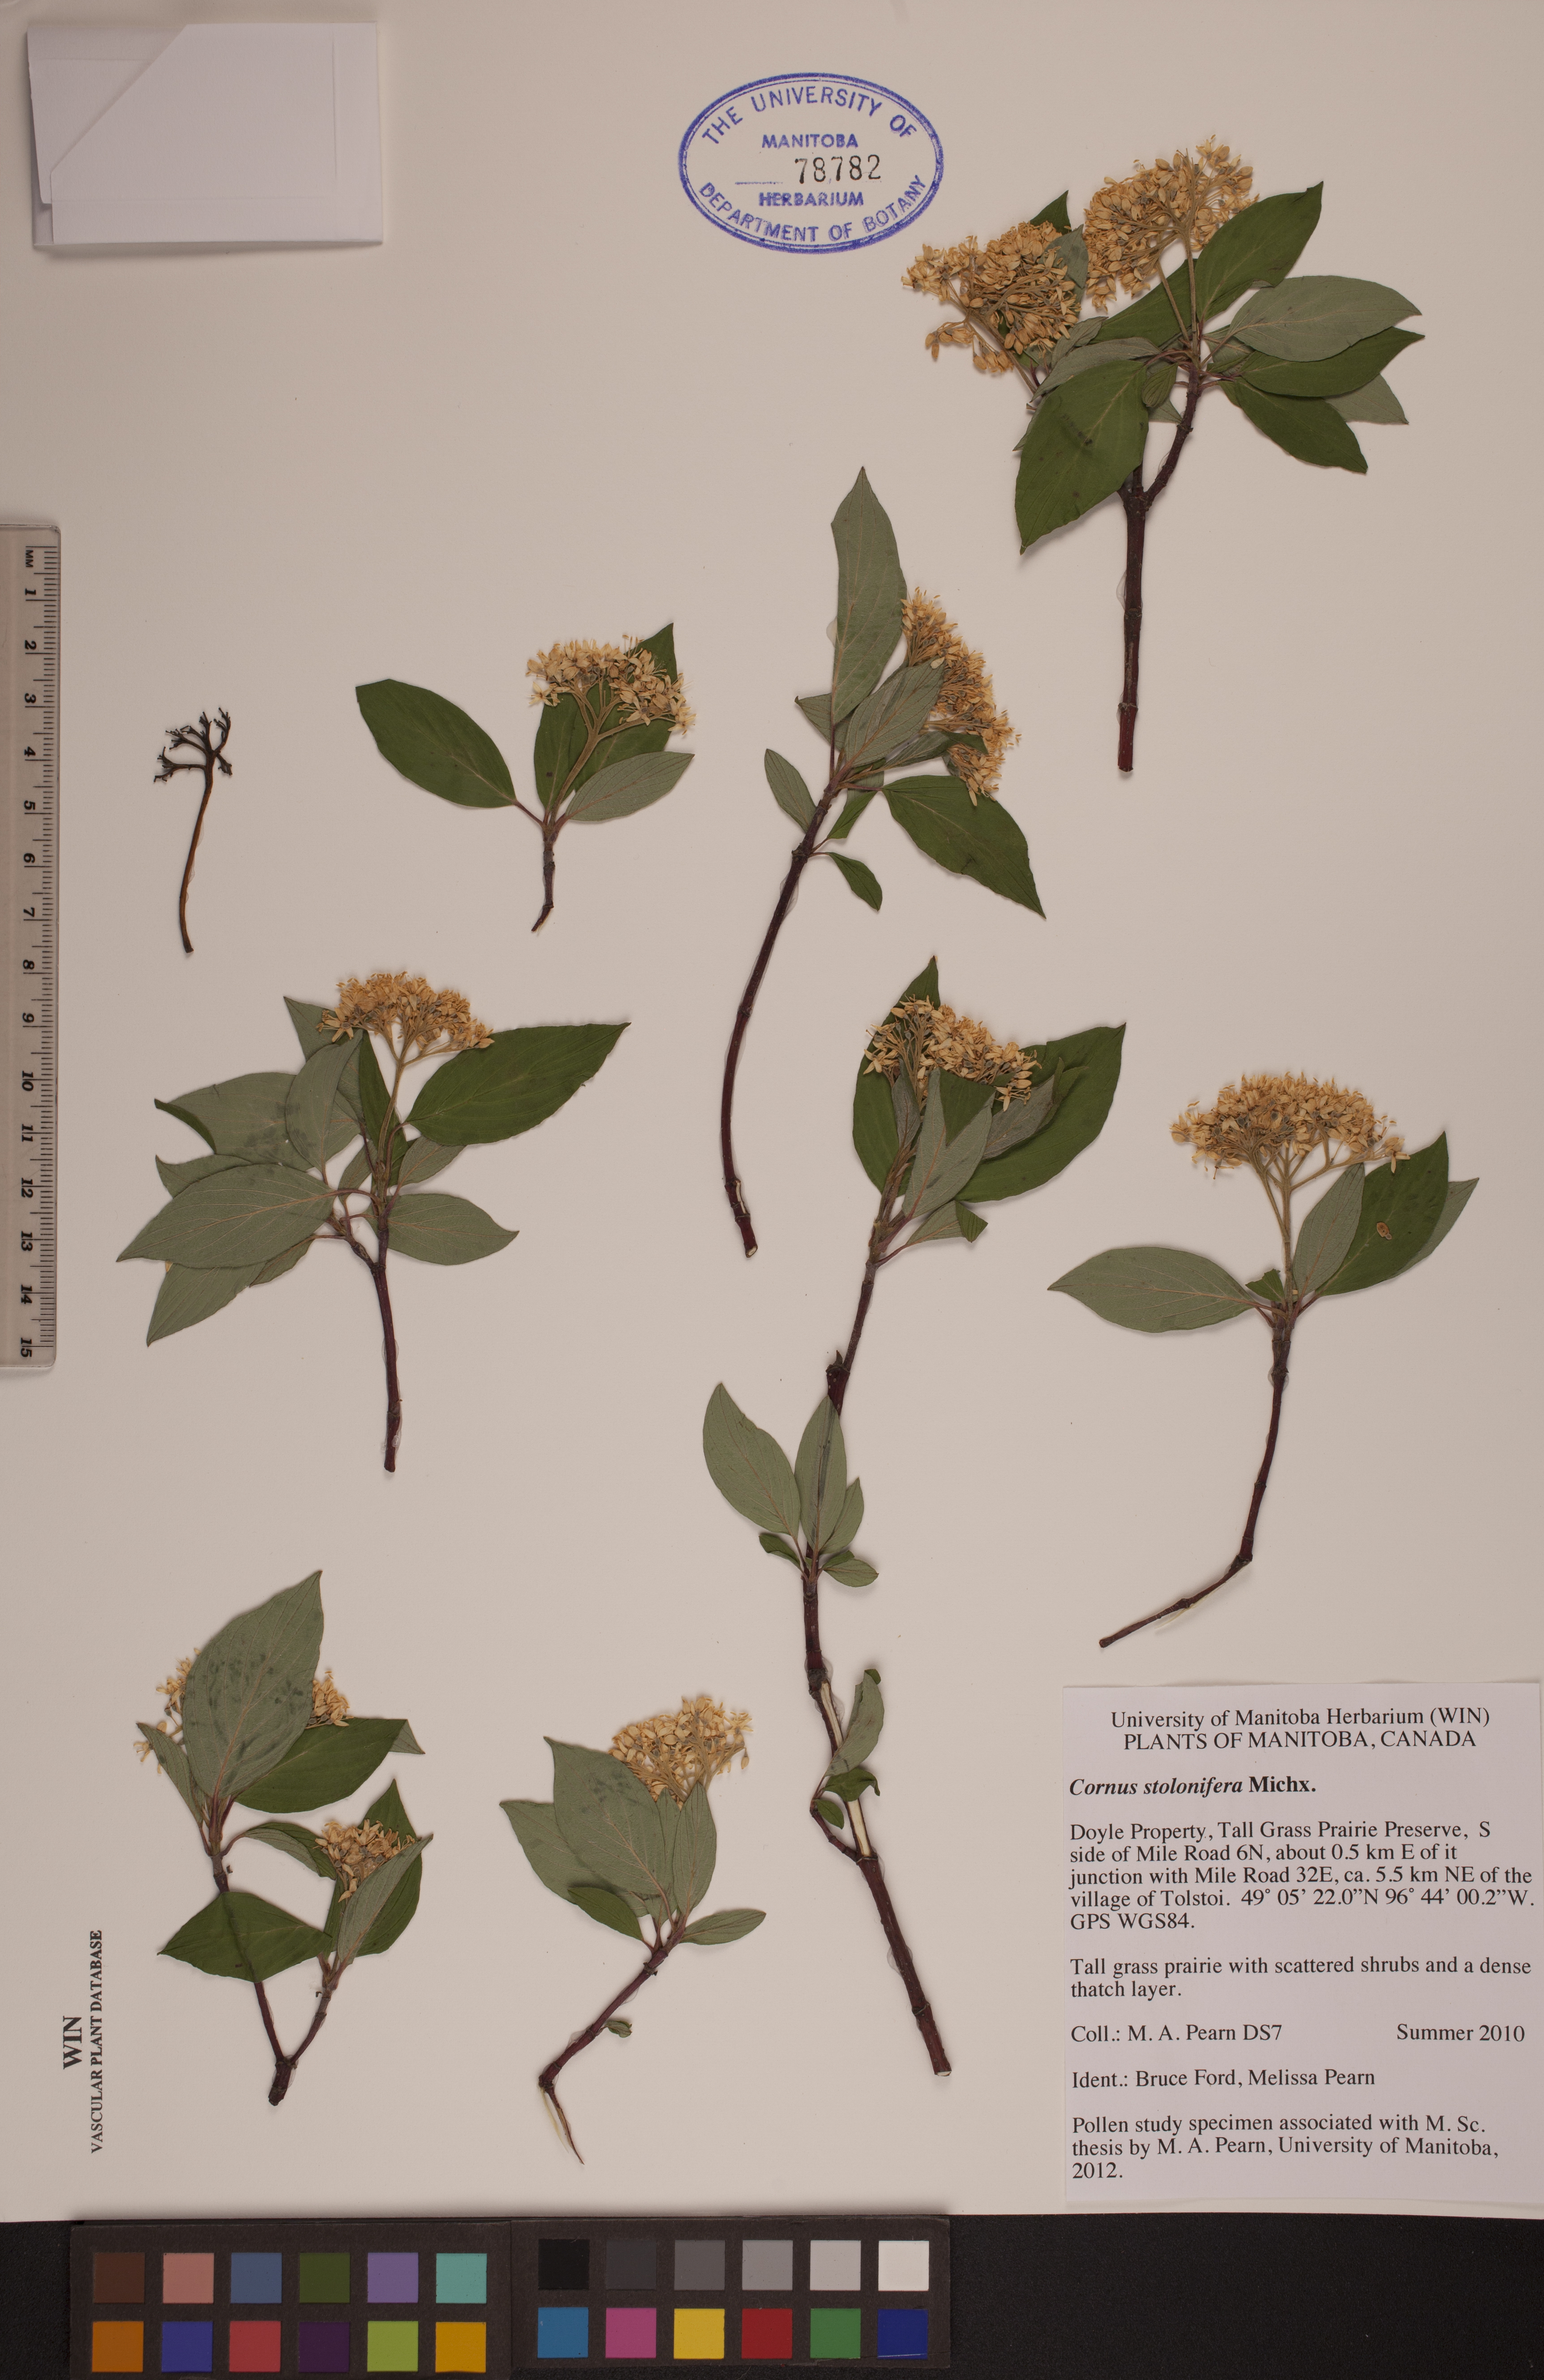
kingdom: Plantae
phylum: Tracheophyta
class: Magnoliopsida
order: Cornales
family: Cornaceae
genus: Cornus
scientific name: Cornus sericea
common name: Red-osier dogwood
